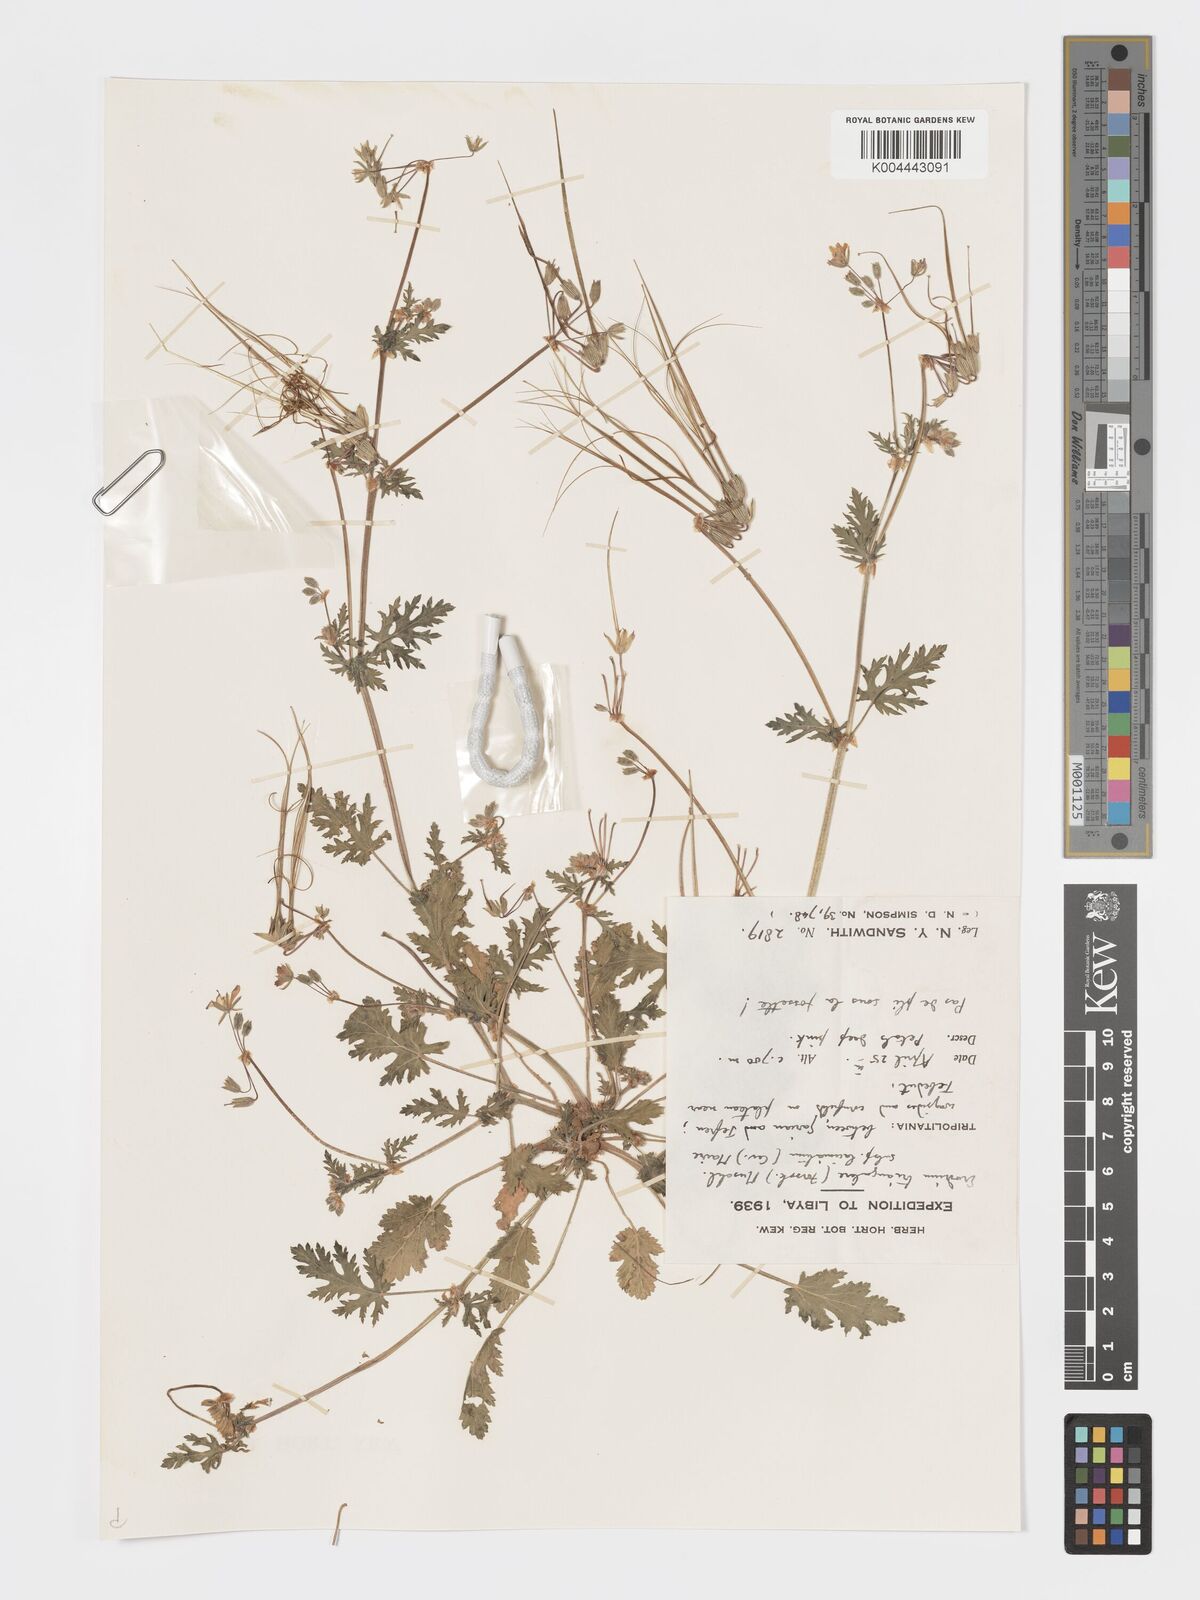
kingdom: Plantae
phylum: Tracheophyta
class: Magnoliopsida
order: Geraniales
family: Geraniaceae
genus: Erodium
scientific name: Erodium laciniatum
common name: Cutleaf stork's bill
